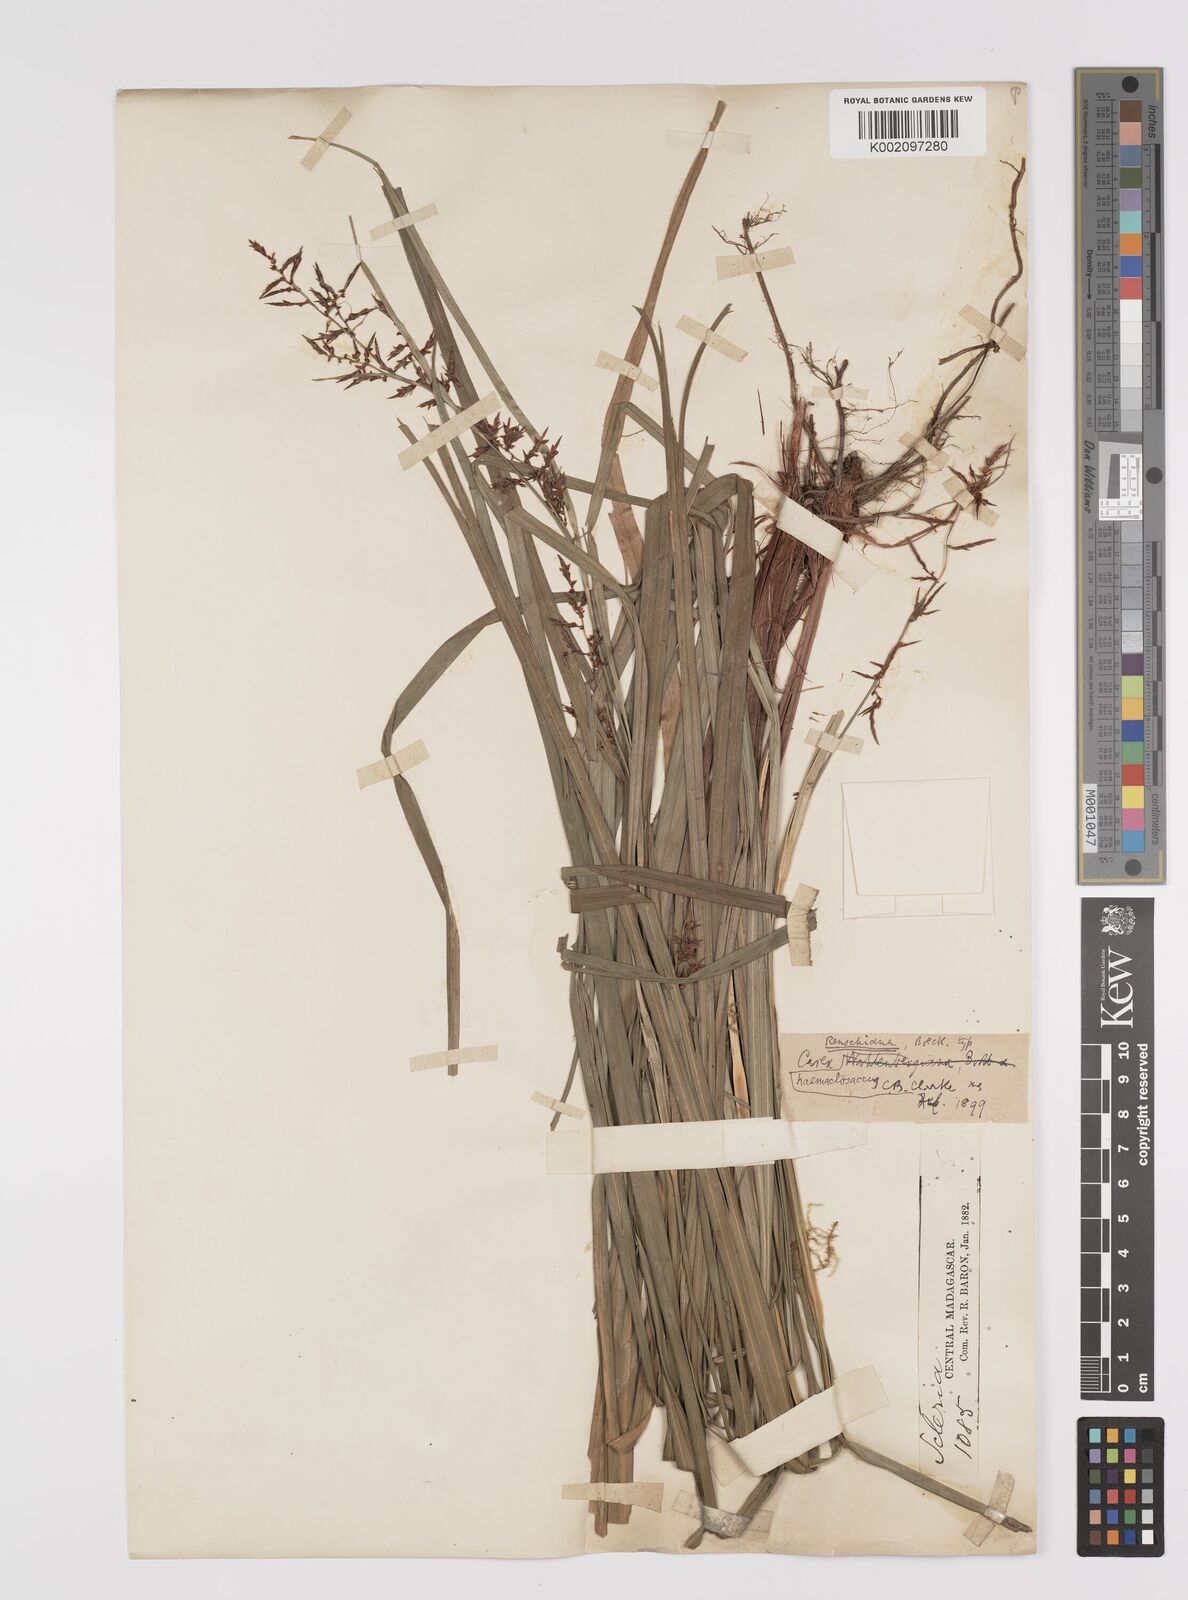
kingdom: Plantae
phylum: Tracheophyta
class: Liliopsida
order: Poales
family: Cyperaceae
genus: Carex
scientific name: Carex renschiana
